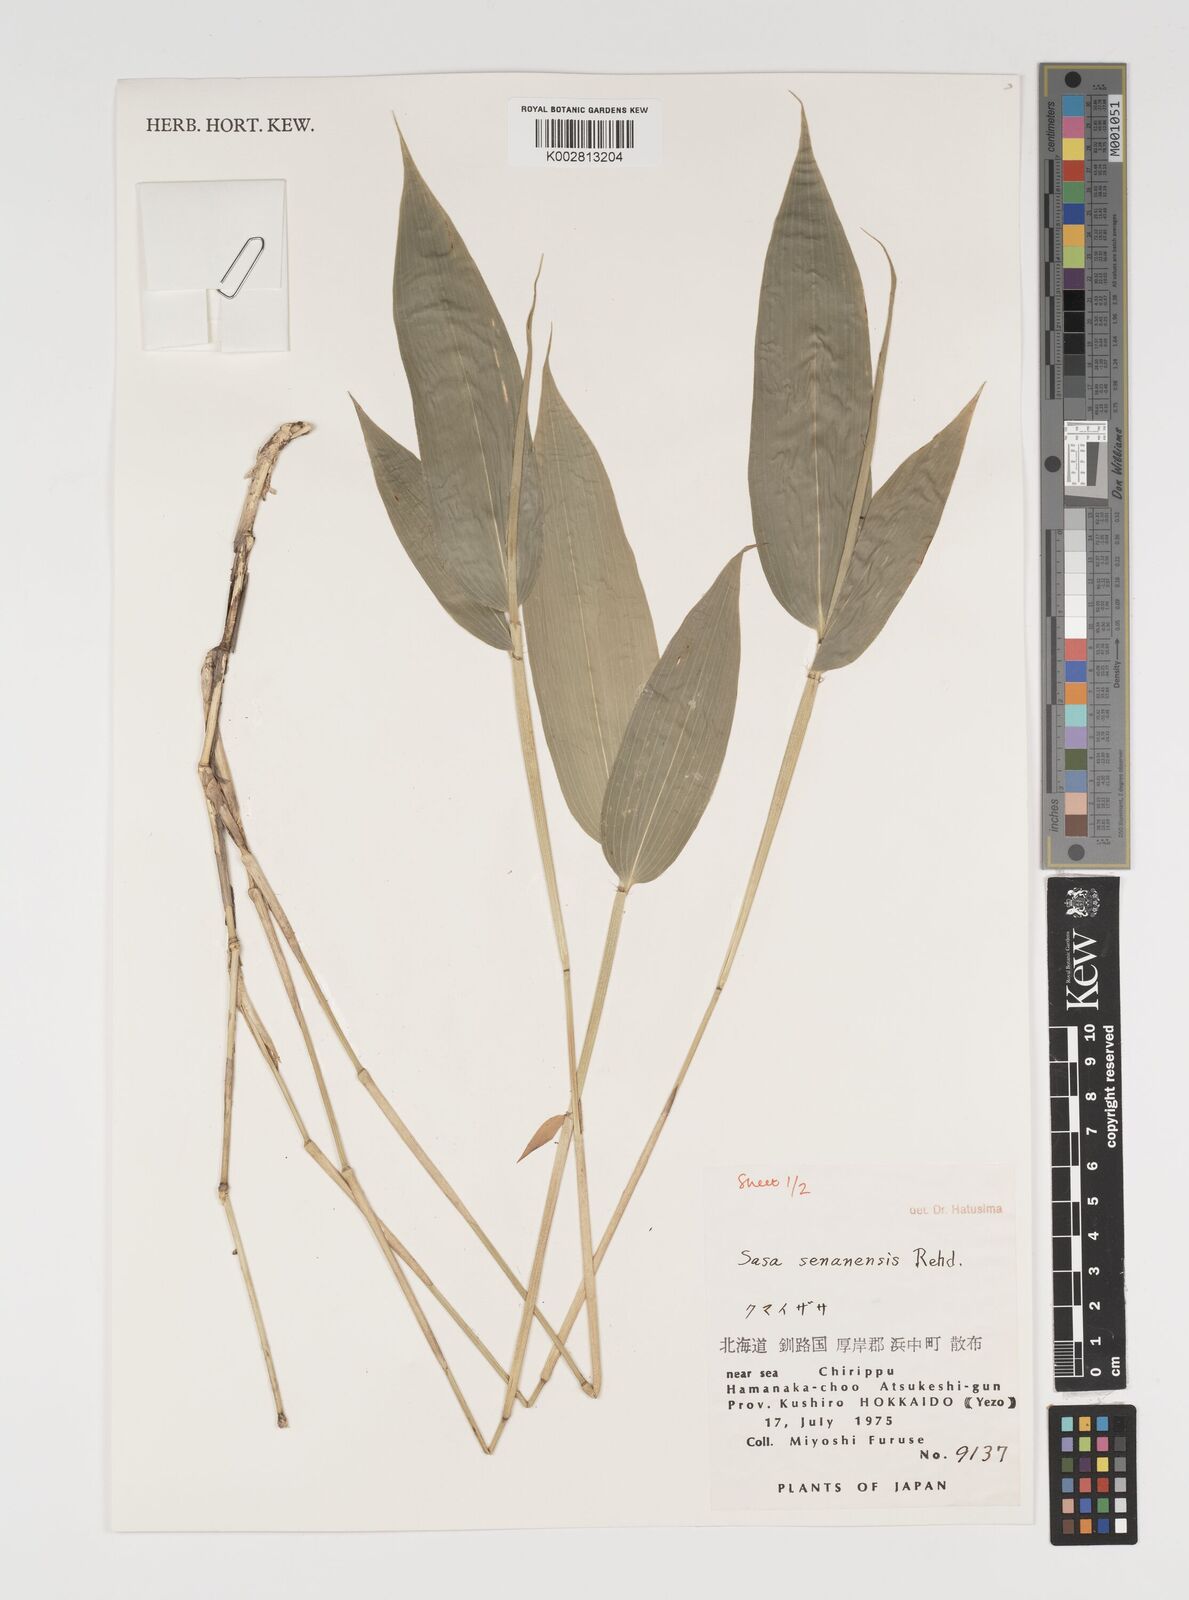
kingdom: Plantae
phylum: Tracheophyta
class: Liliopsida
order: Poales
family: Poaceae
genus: Sasa
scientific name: Sasa senanensis
